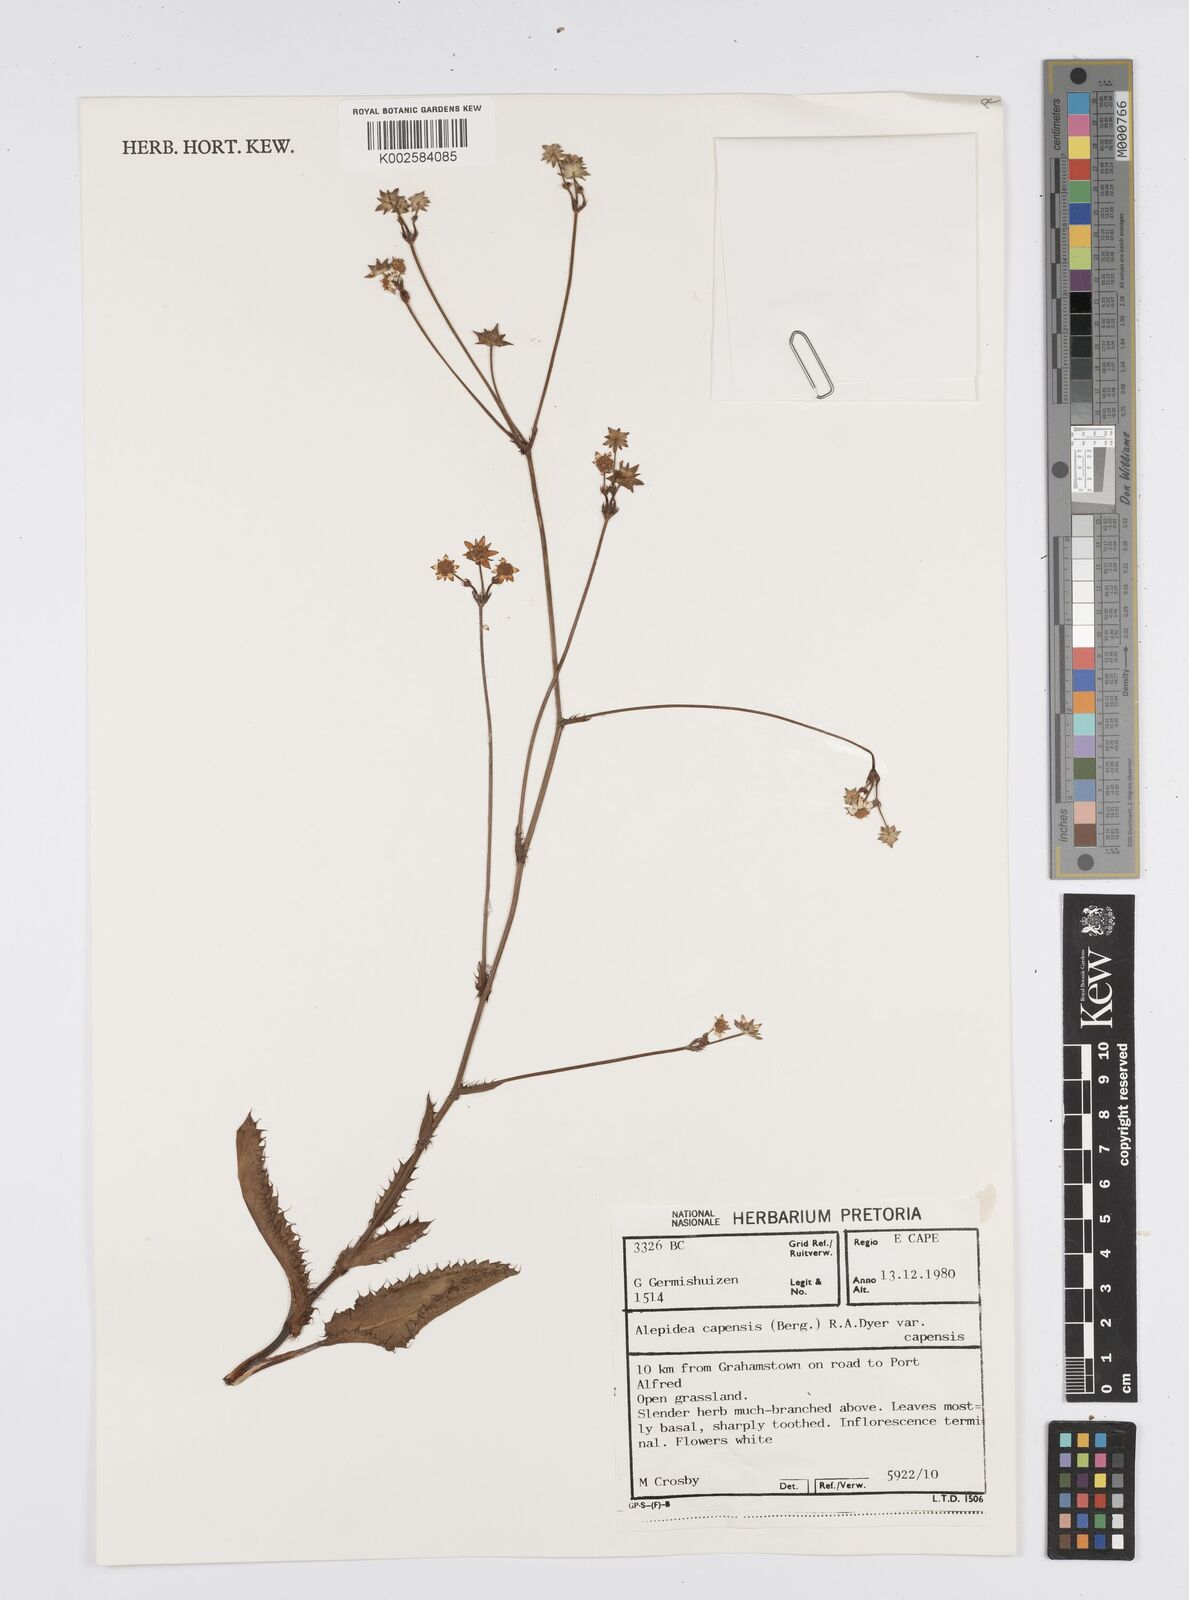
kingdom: Plantae
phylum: Tracheophyta
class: Magnoliopsida
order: Apiales
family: Apiaceae
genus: Alepidea
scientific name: Alepidea capensis
